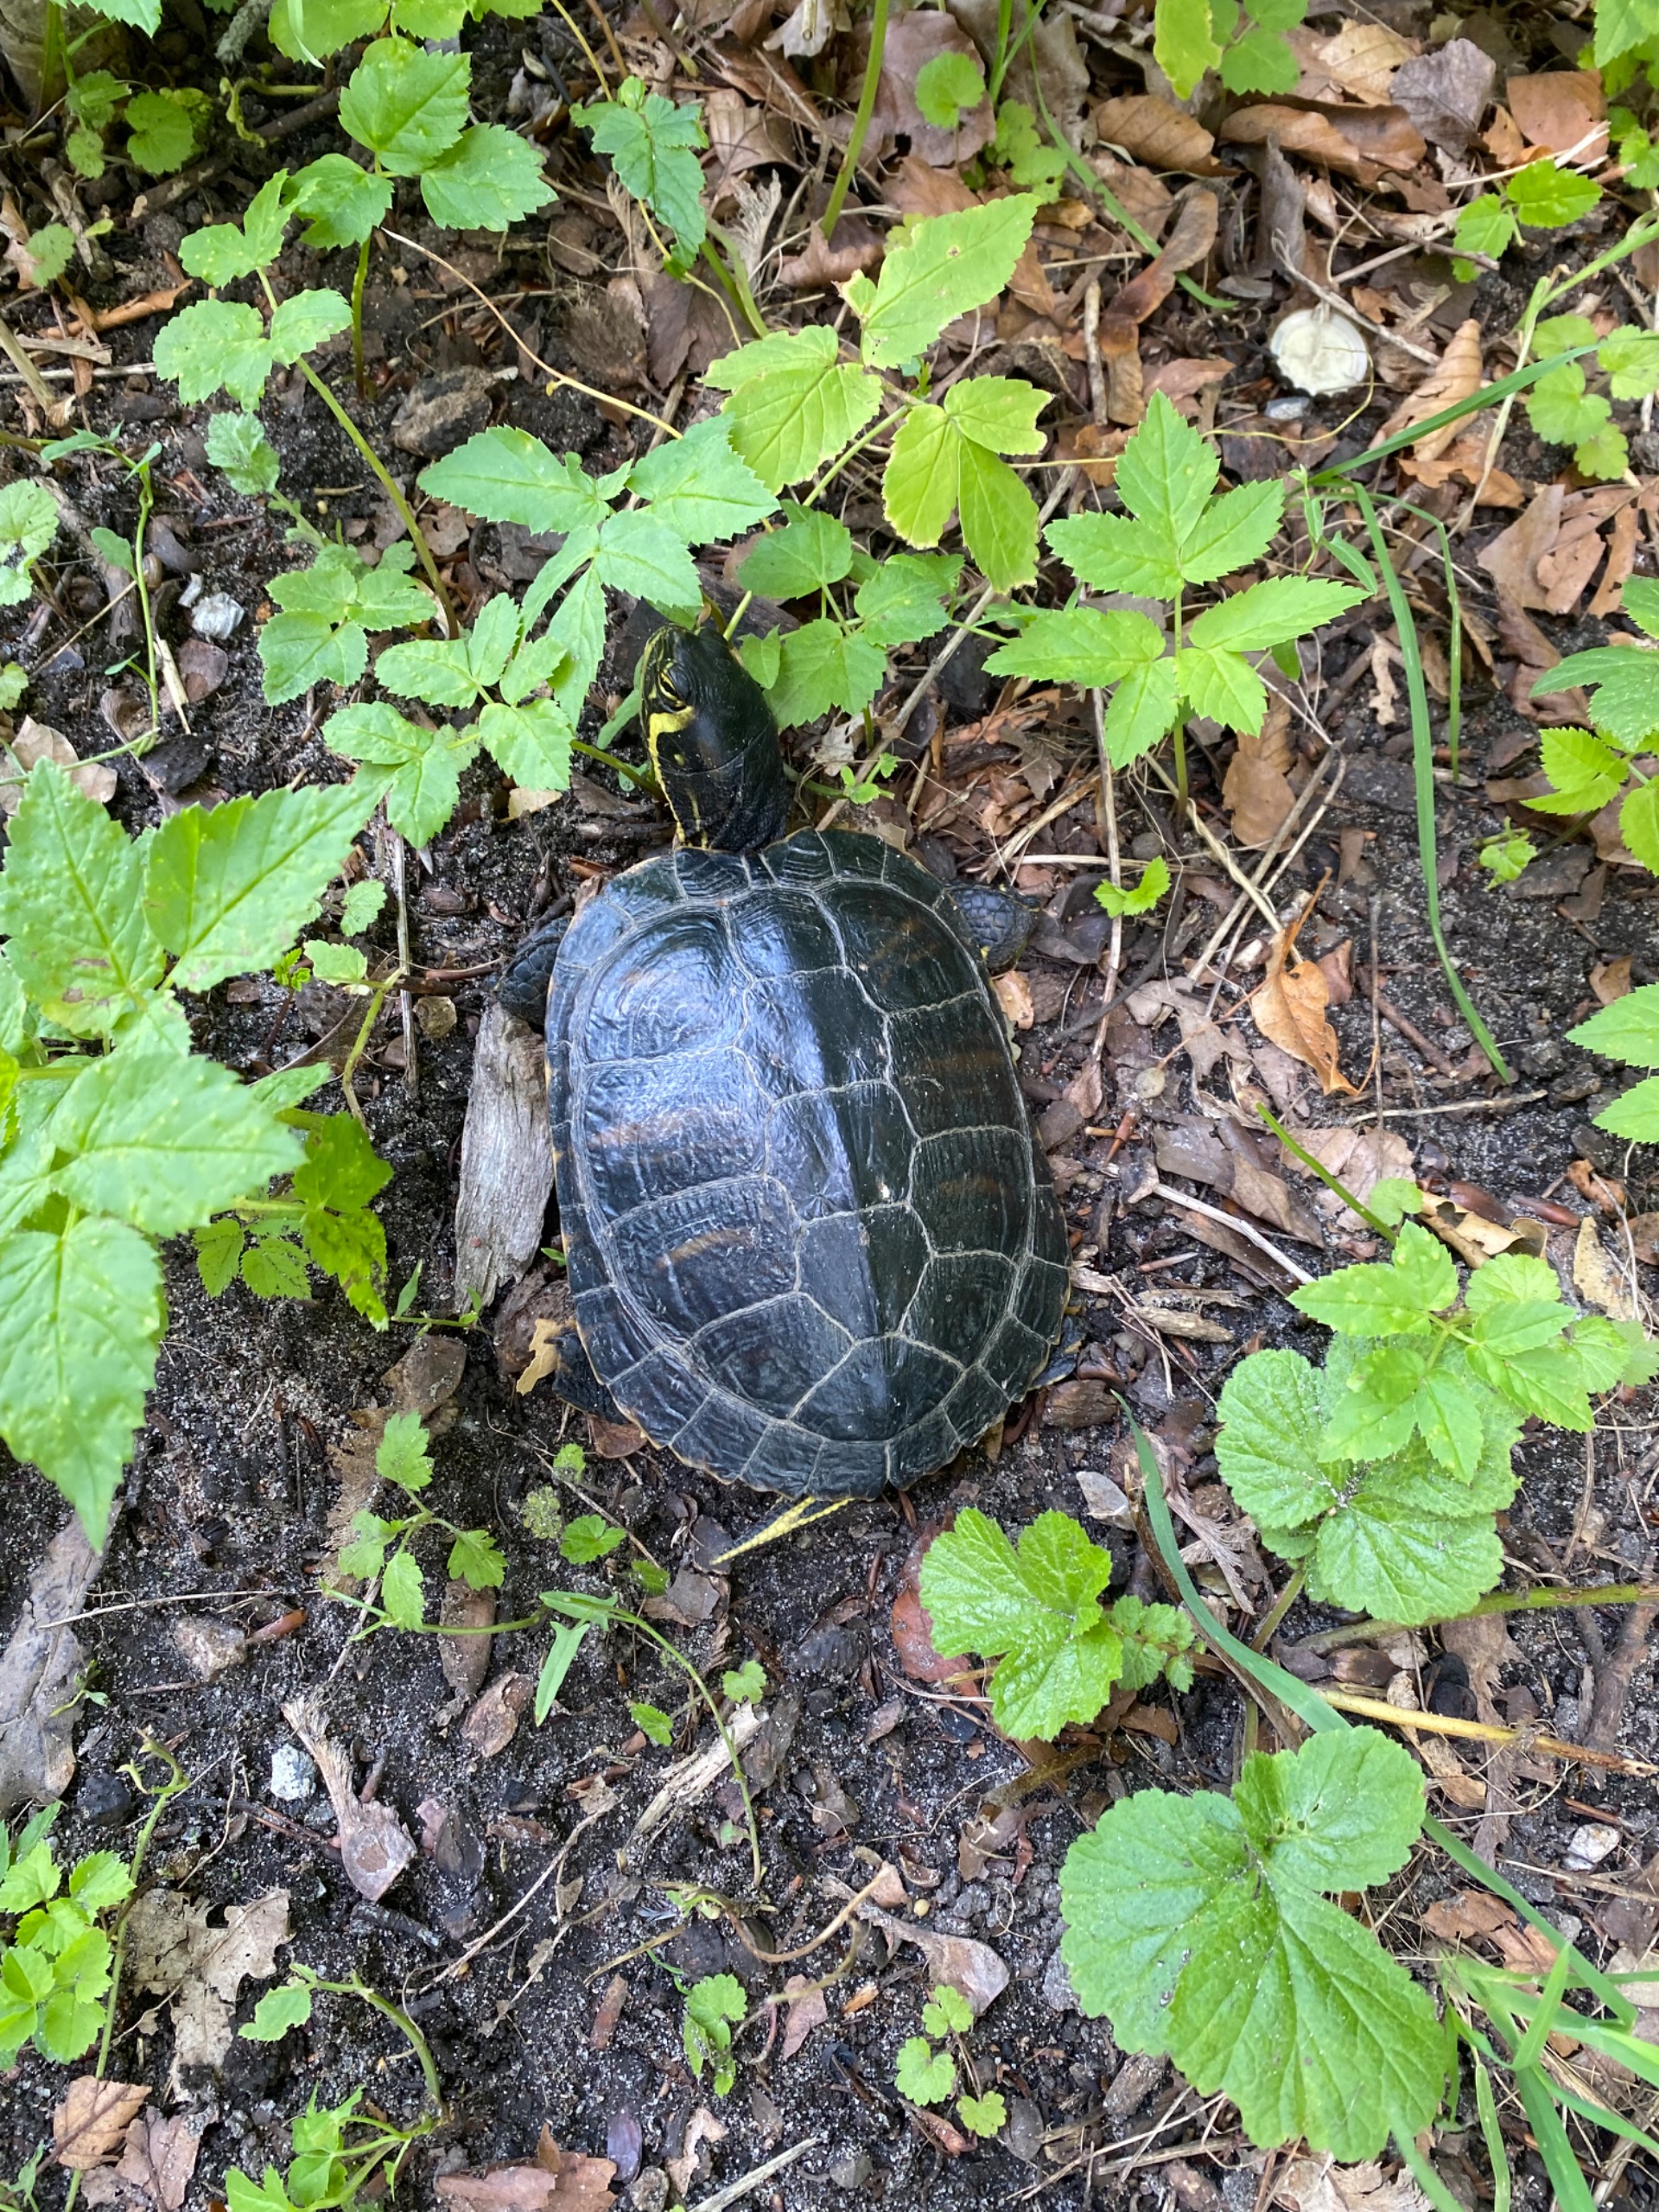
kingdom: Animalia
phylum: Chordata
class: Testudines
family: Emydidae
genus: Trachemys
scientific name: Trachemys scripta
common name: Guløret terrapin
